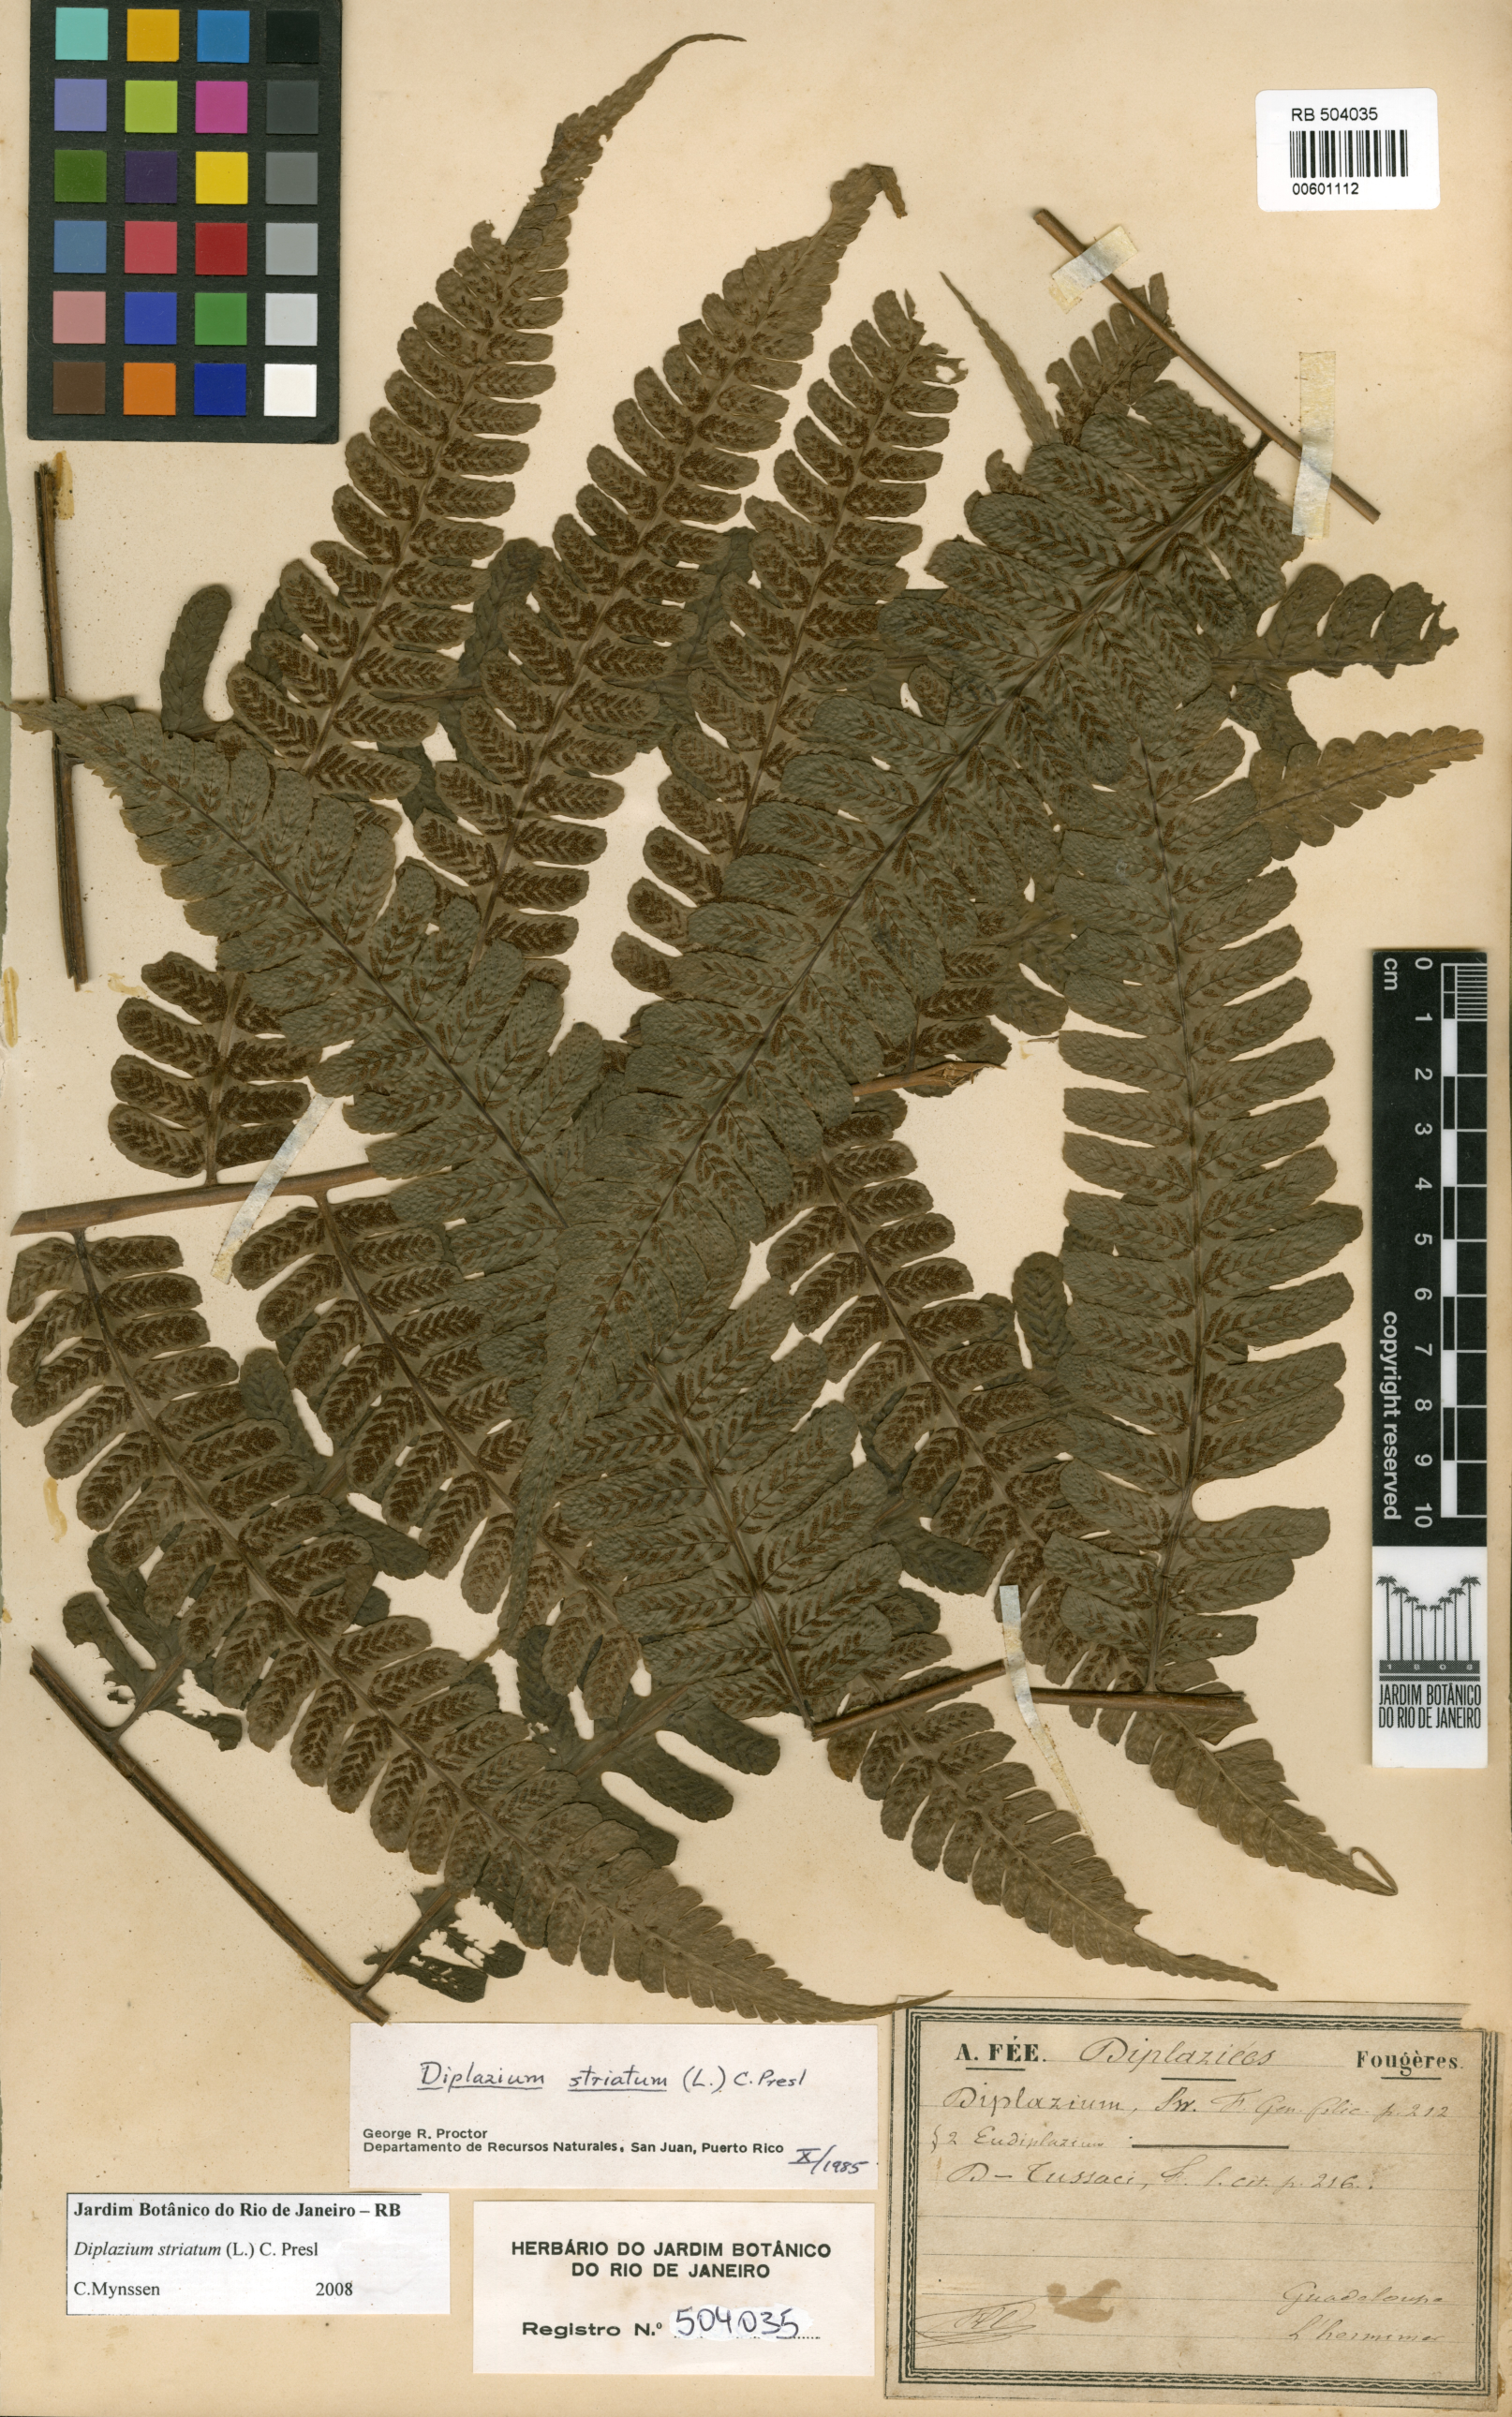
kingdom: Plantae
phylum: Tracheophyta
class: Polypodiopsida
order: Polypodiales
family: Athyriaceae
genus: Diplazium
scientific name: Diplazium striatum
